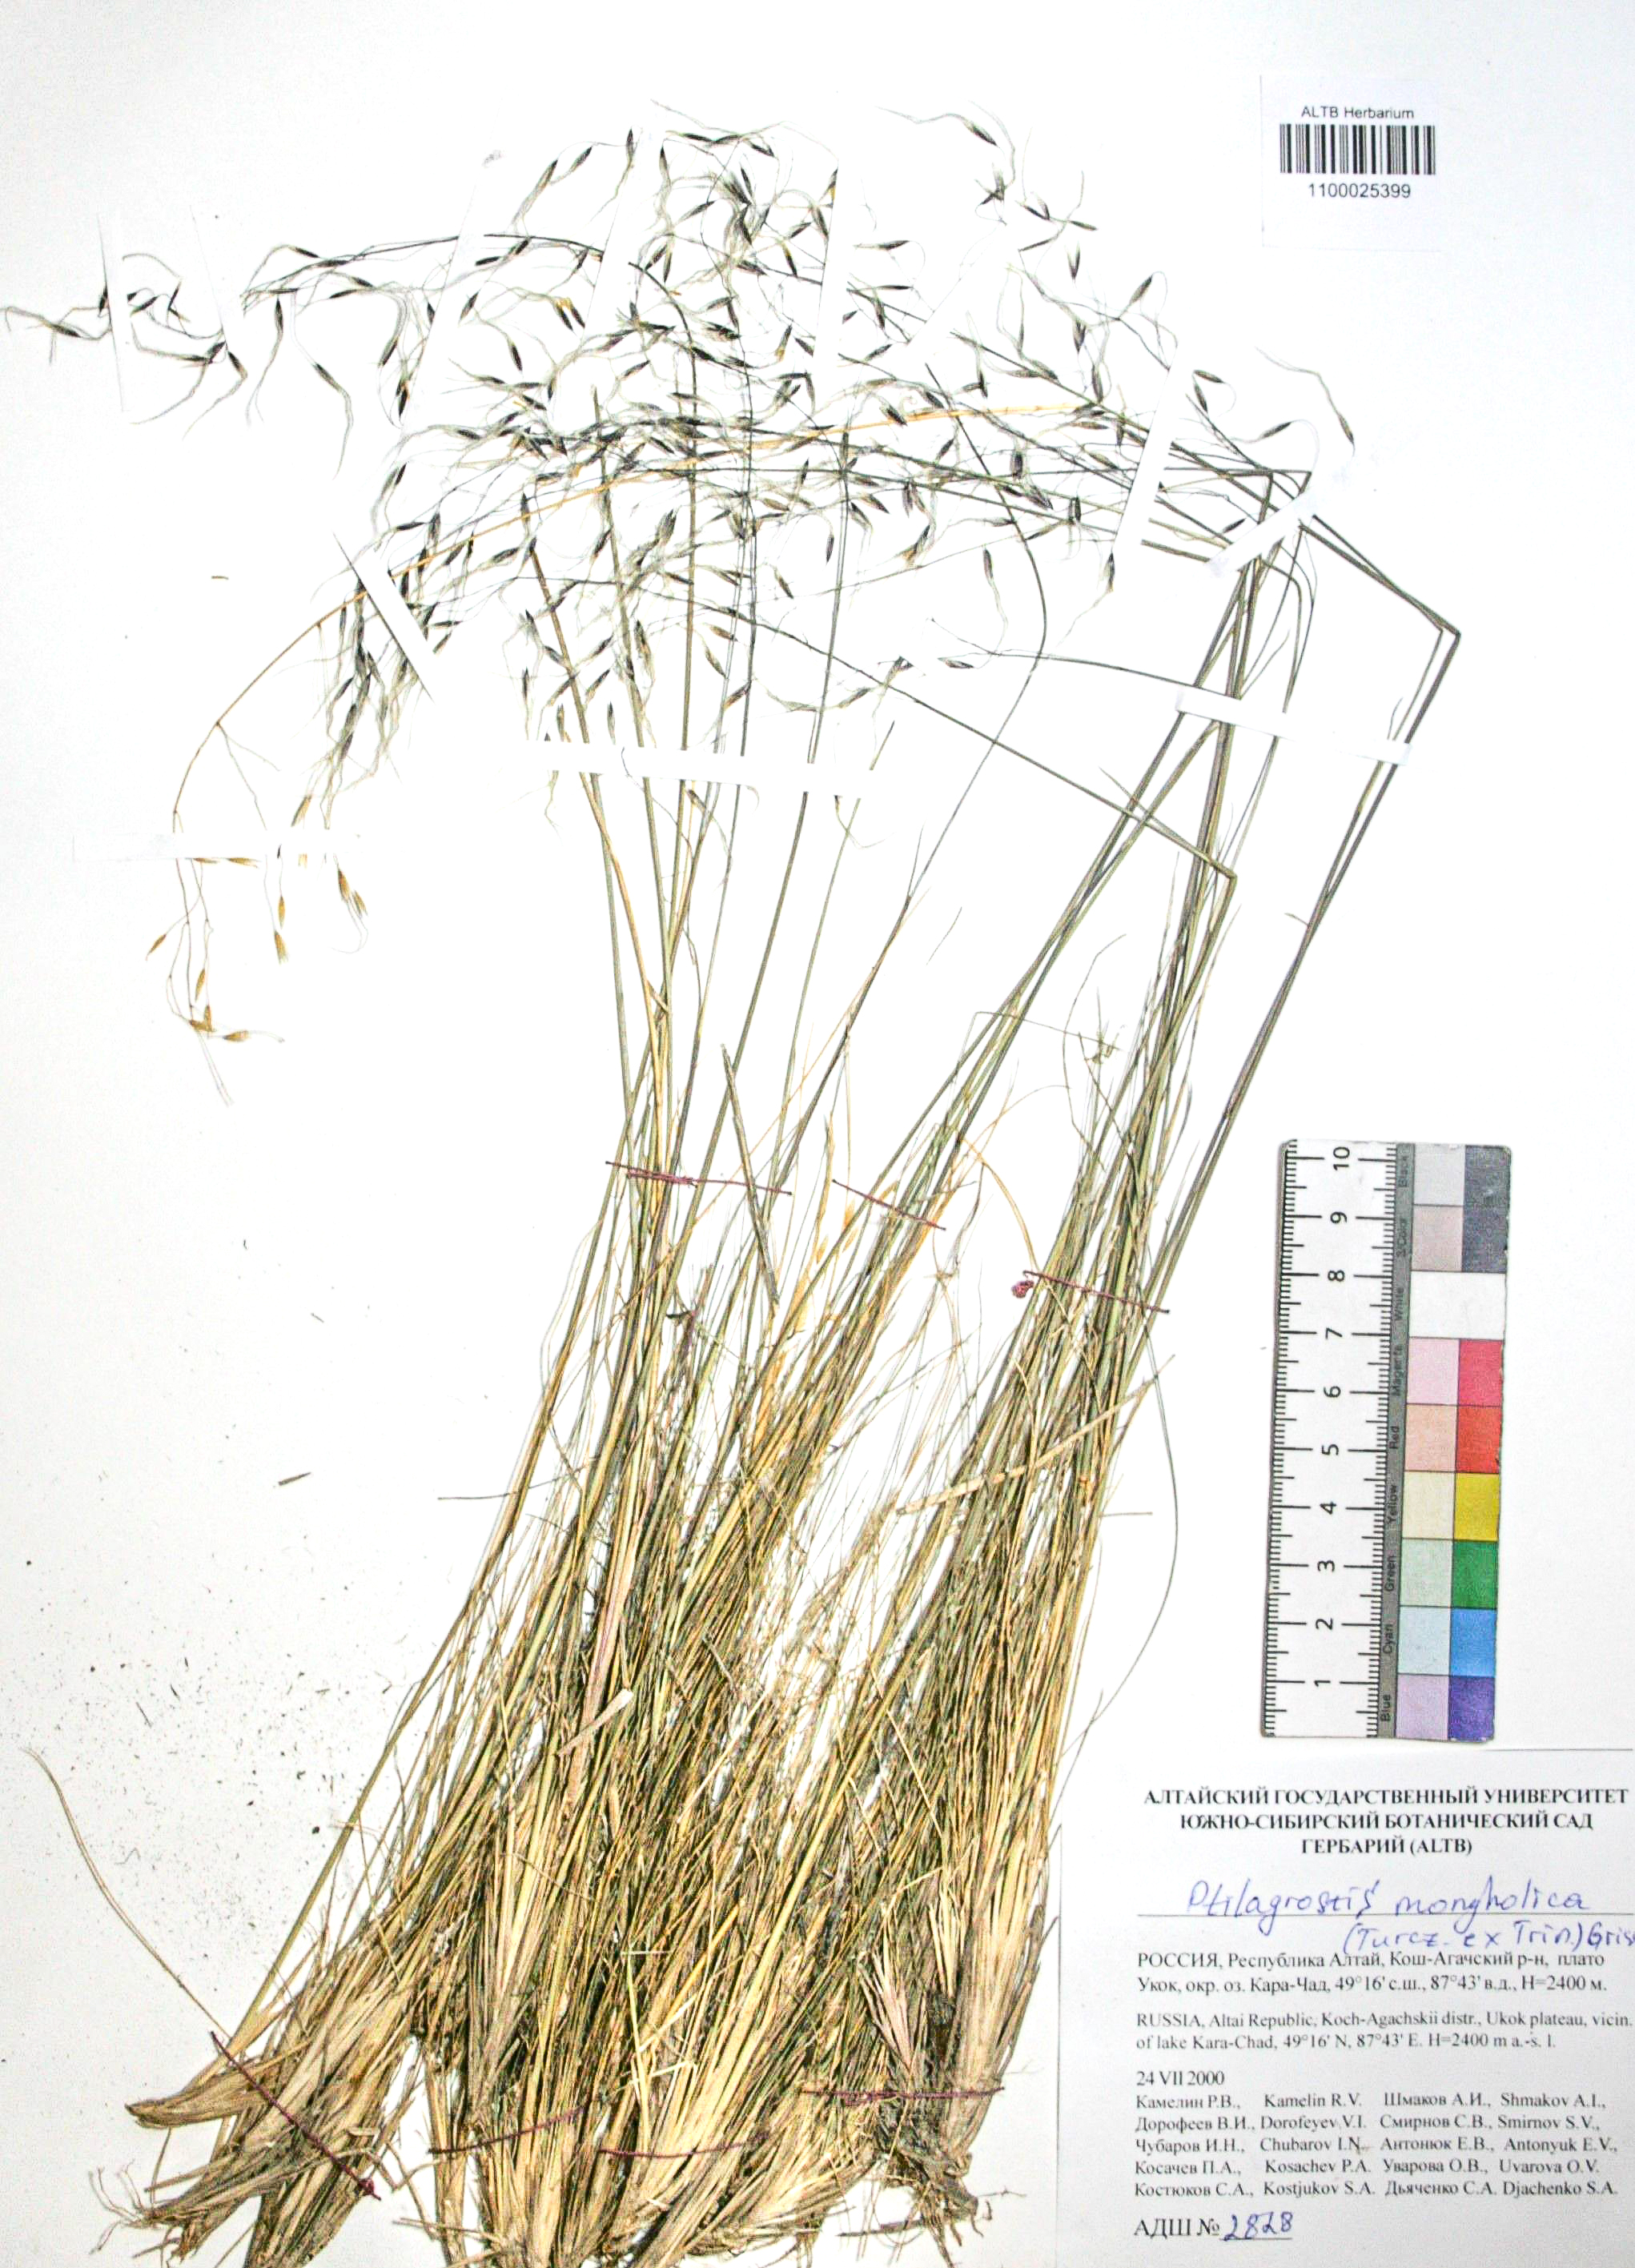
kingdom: Plantae
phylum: Tracheophyta
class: Liliopsida
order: Poales
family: Poaceae
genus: Ptilagrostis
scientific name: Ptilagrostis mongholica
